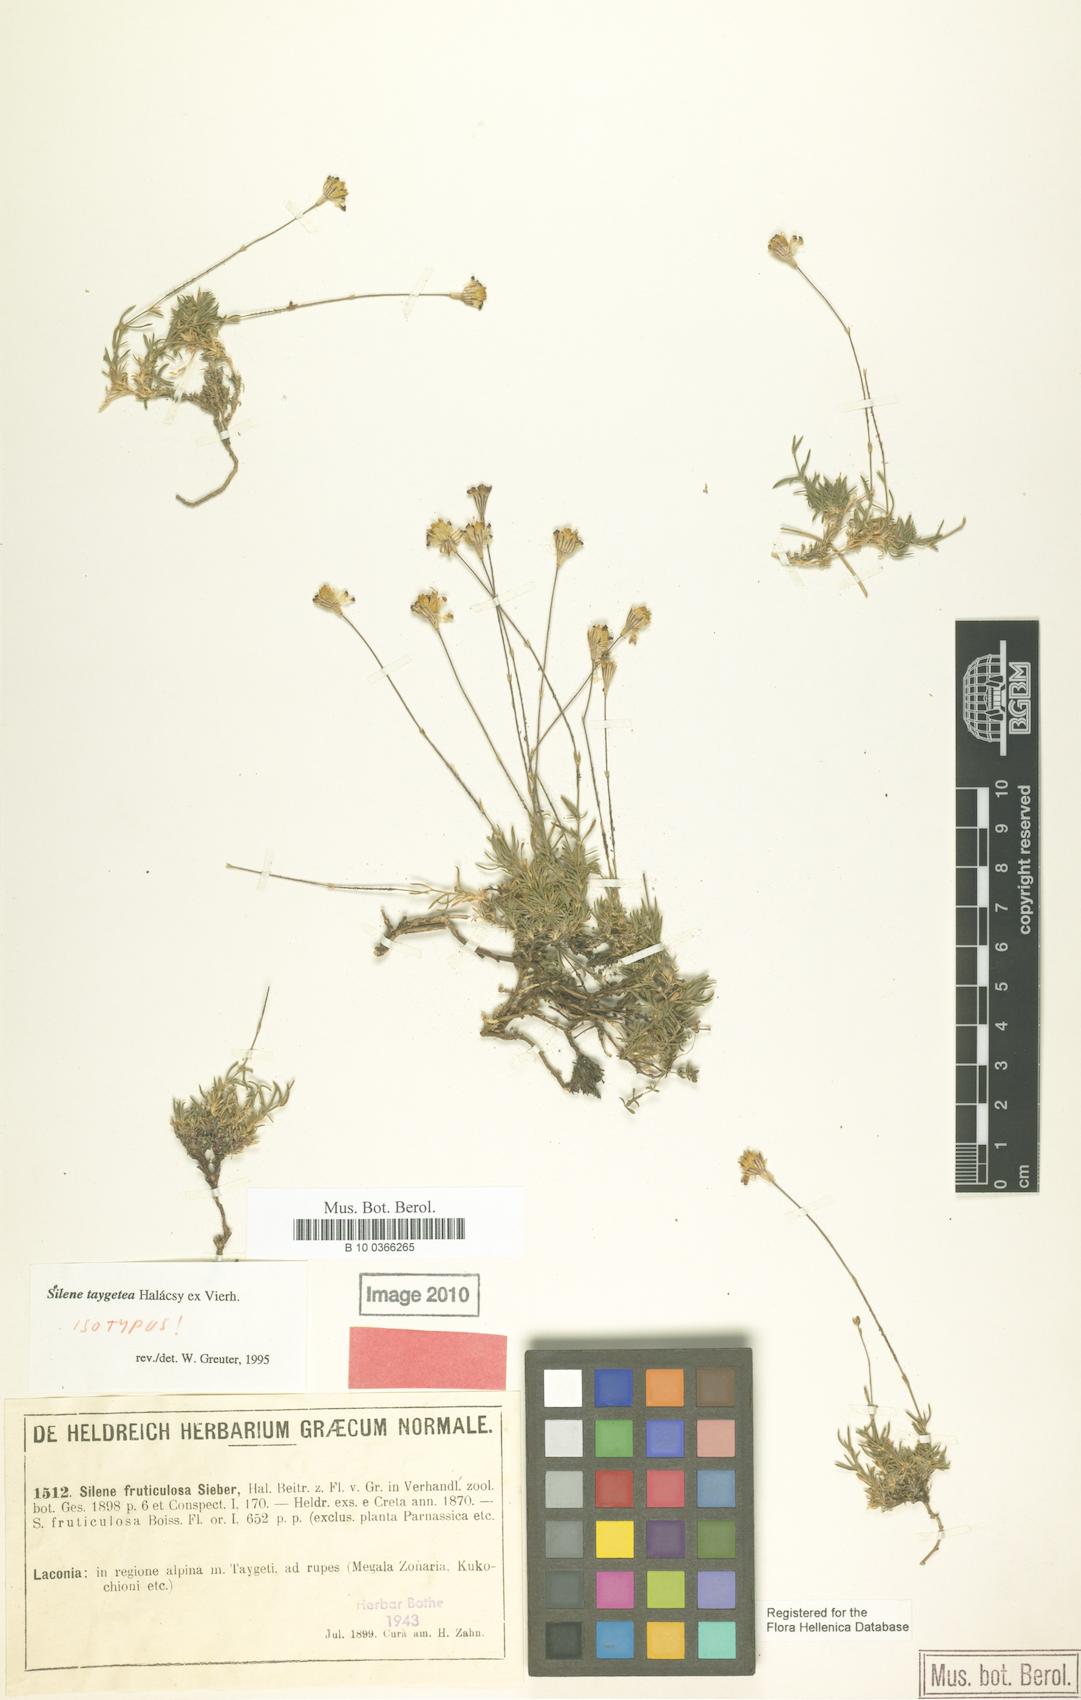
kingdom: Plantae
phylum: Tracheophyta
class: Magnoliopsida
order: Caryophyllales
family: Caryophyllaceae
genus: Silene
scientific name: Silene taygetea
